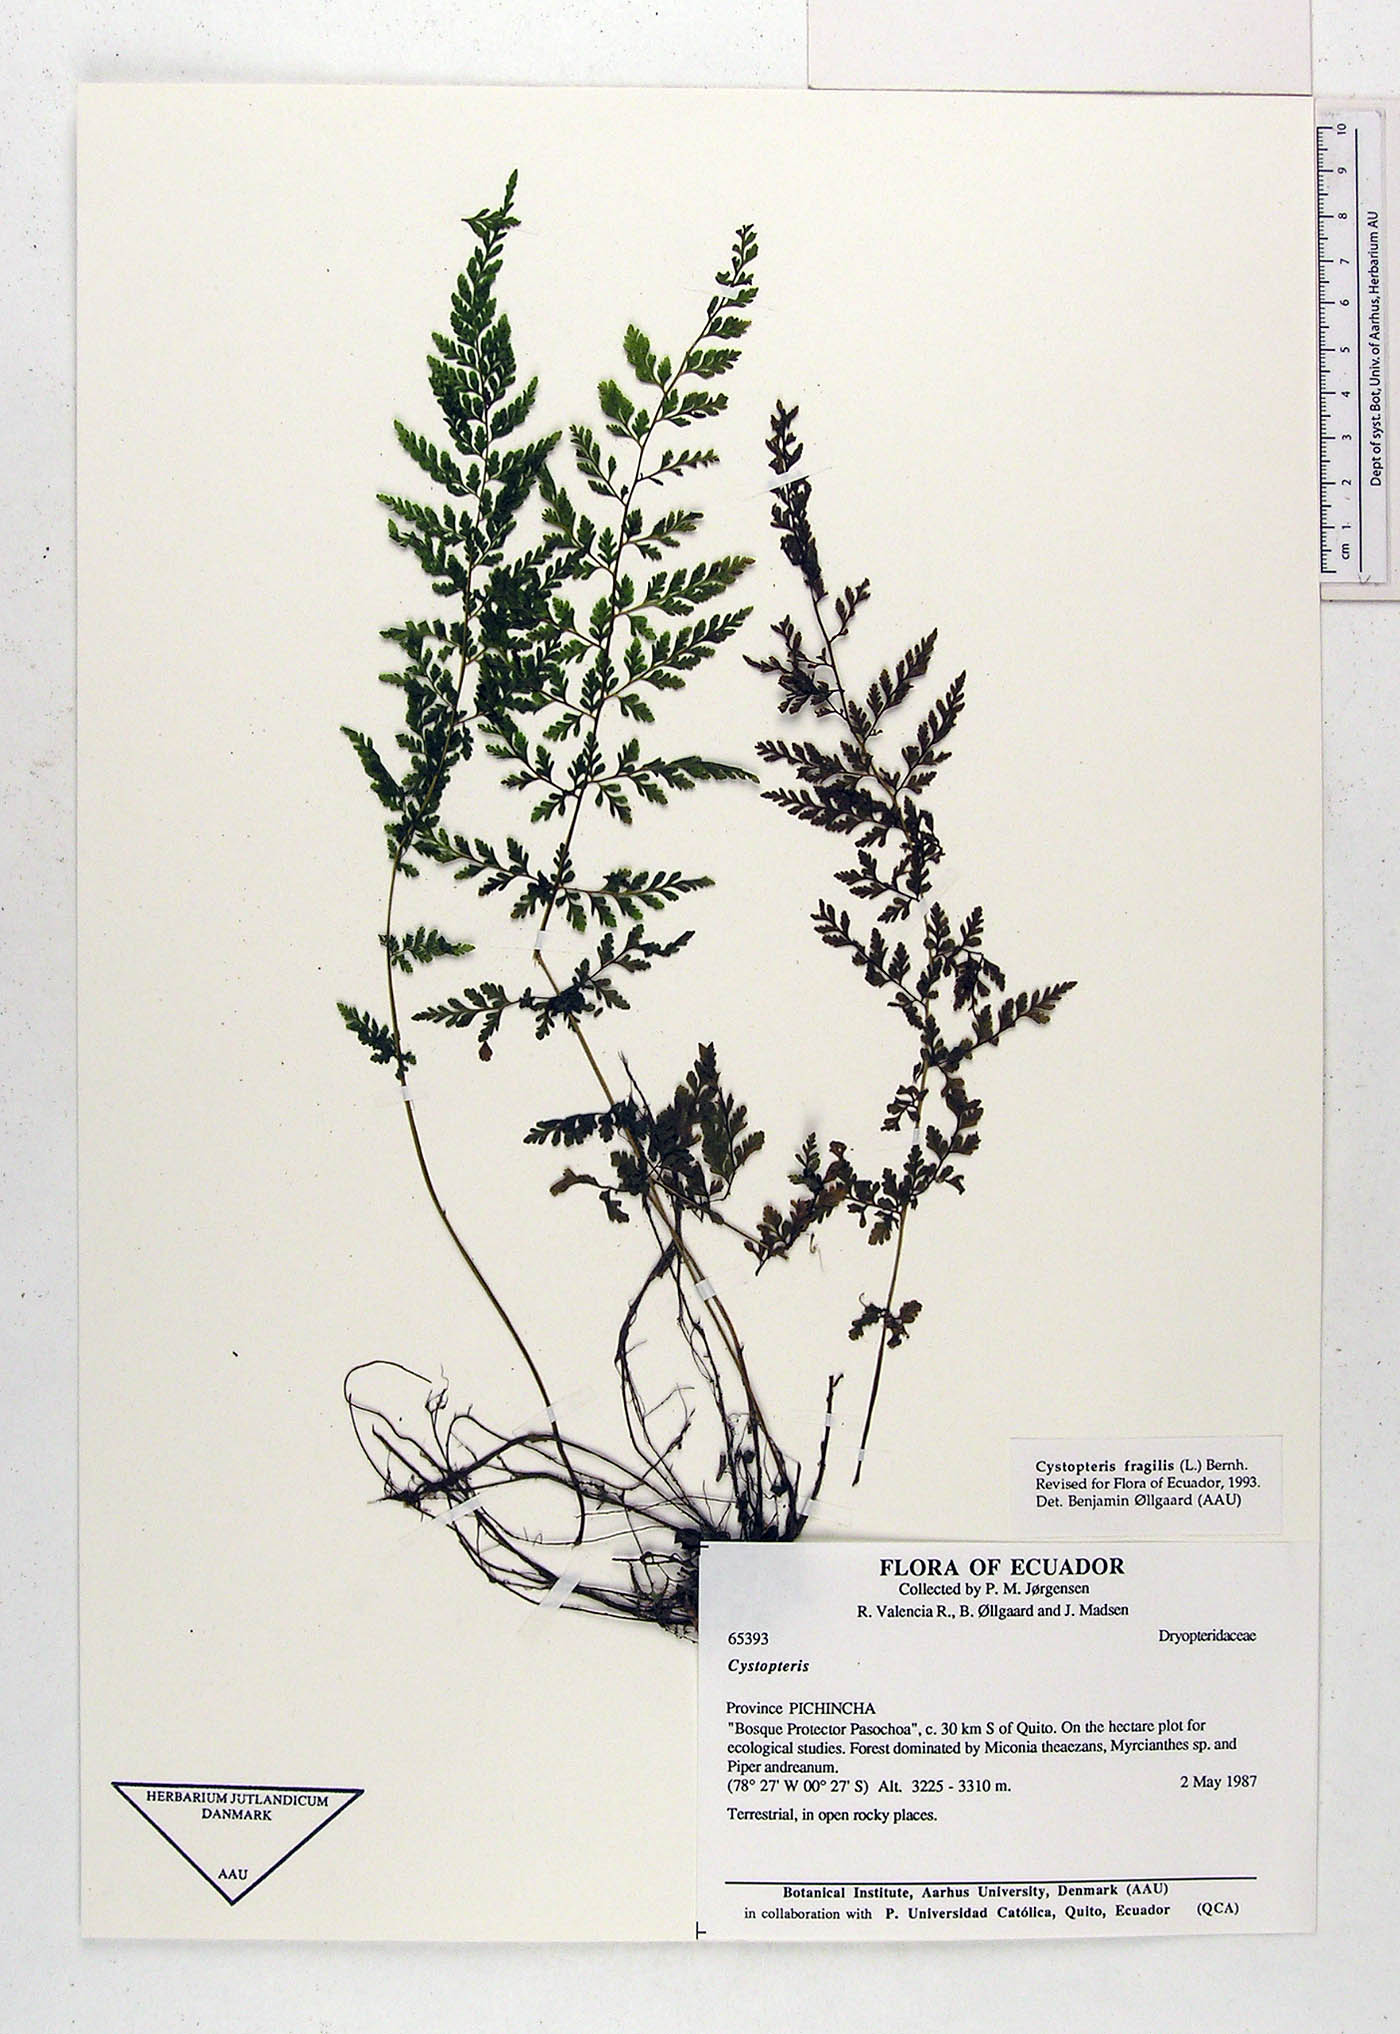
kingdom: Plantae
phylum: Tracheophyta
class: Polypodiopsida
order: Polypodiales
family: Cystopteridaceae
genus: Cystopteris
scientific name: Cystopteris fragilis
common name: Brittle bladder fern
